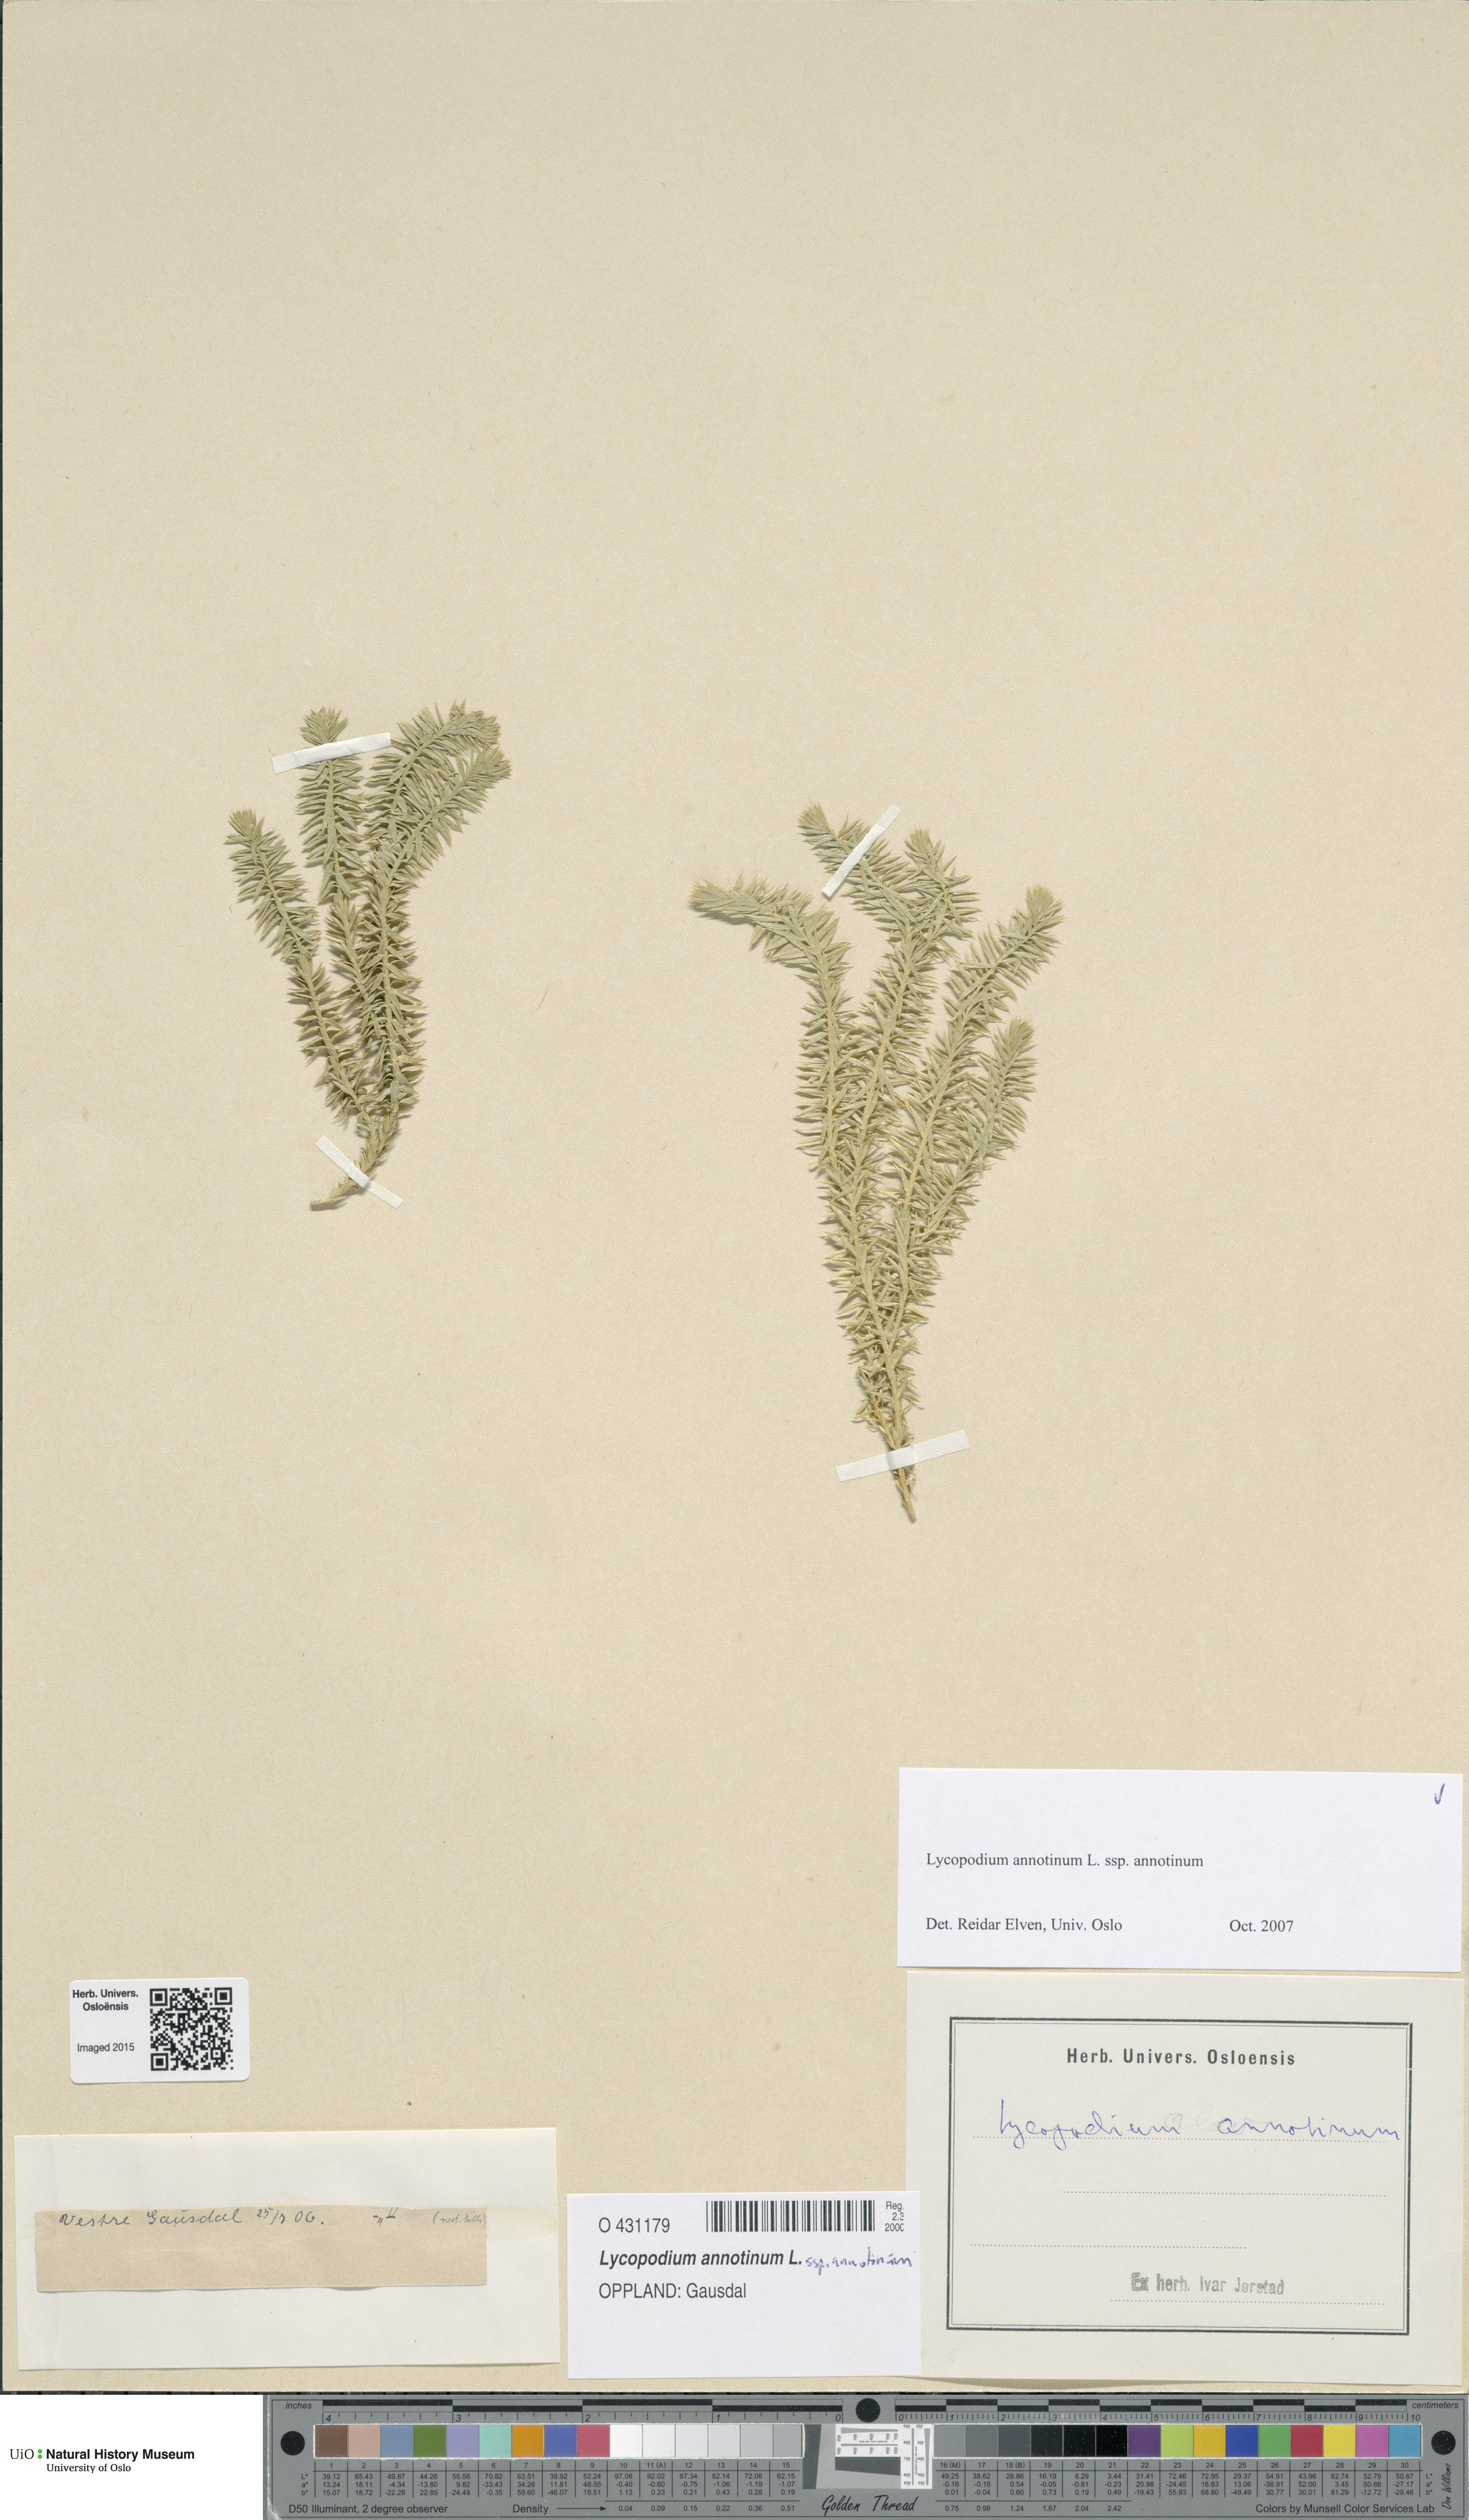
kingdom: Plantae
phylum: Tracheophyta
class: Lycopodiopsida
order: Lycopodiales
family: Lycopodiaceae
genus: Spinulum
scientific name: Spinulum annotinum
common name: Interrupted club-moss
